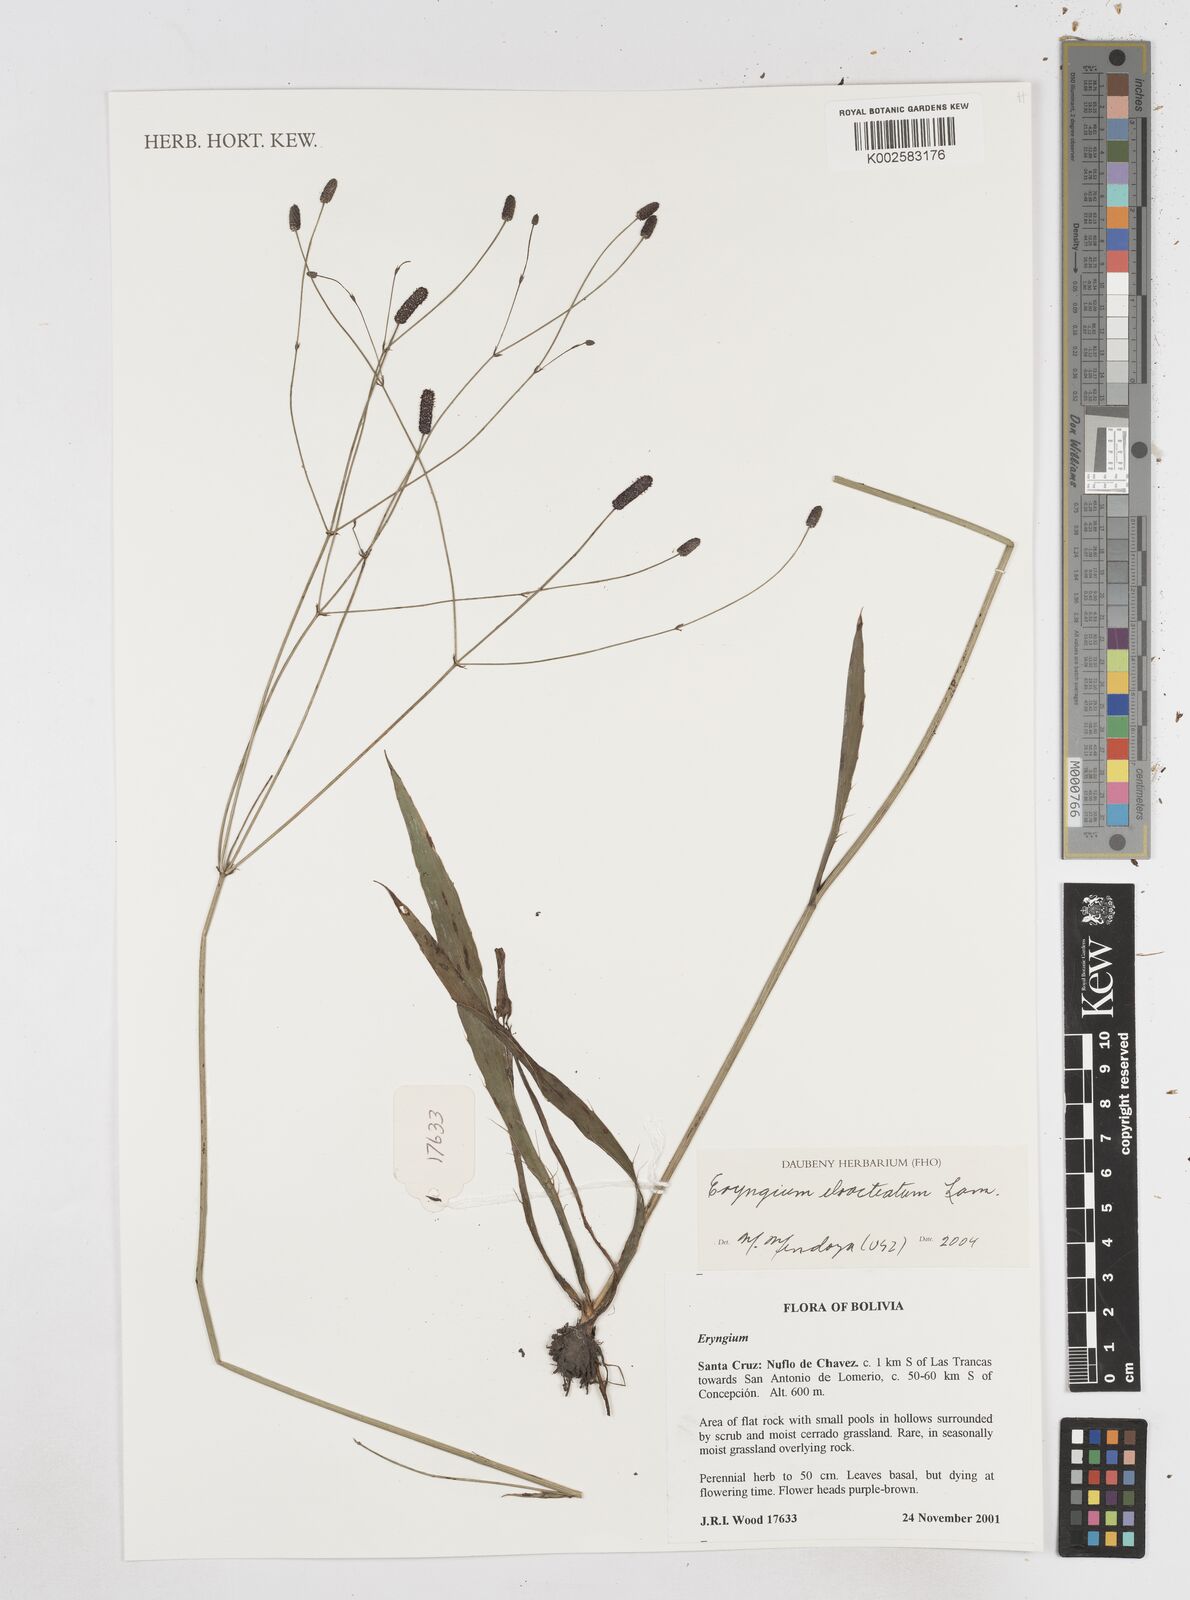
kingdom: Plantae
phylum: Tracheophyta
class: Magnoliopsida
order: Apiales
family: Apiaceae
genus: Eryngium
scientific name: Eryngium ebracteatum
